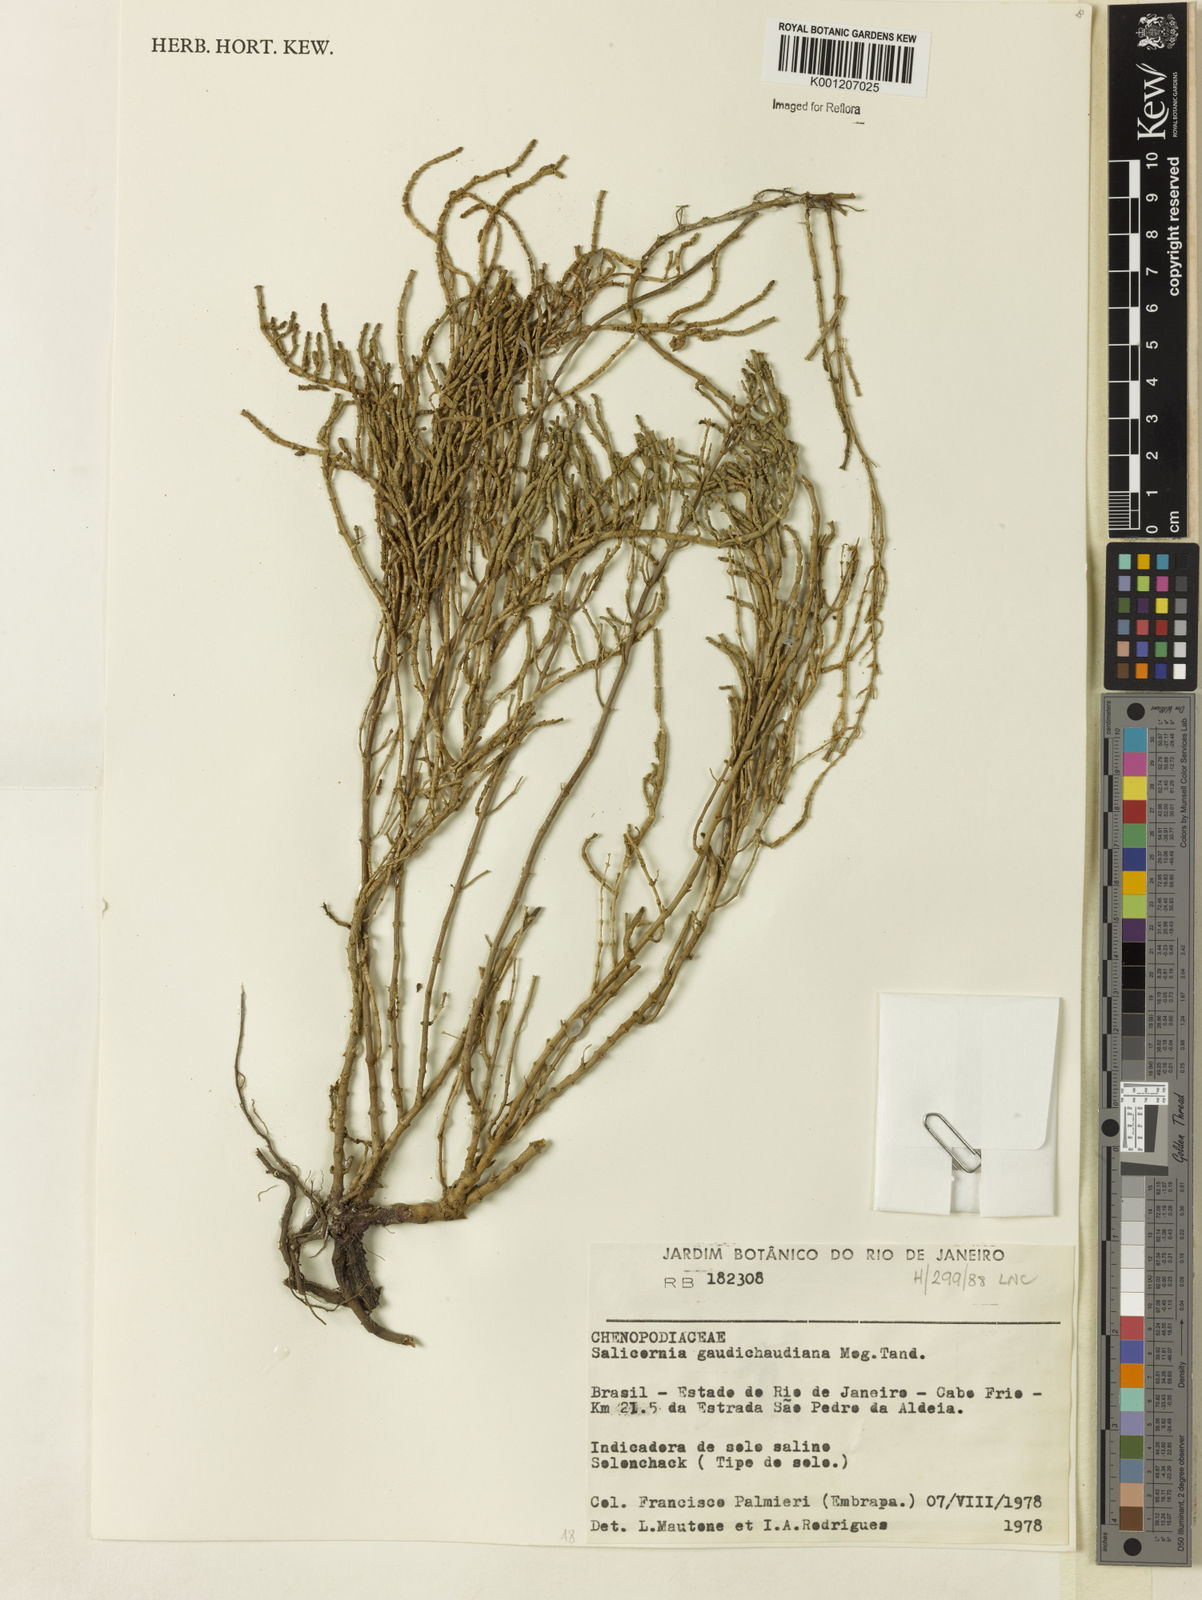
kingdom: Plantae
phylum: Tracheophyta
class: Magnoliopsida
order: Caryophyllales
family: Amaranthaceae
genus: Salicornia
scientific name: Salicornia
